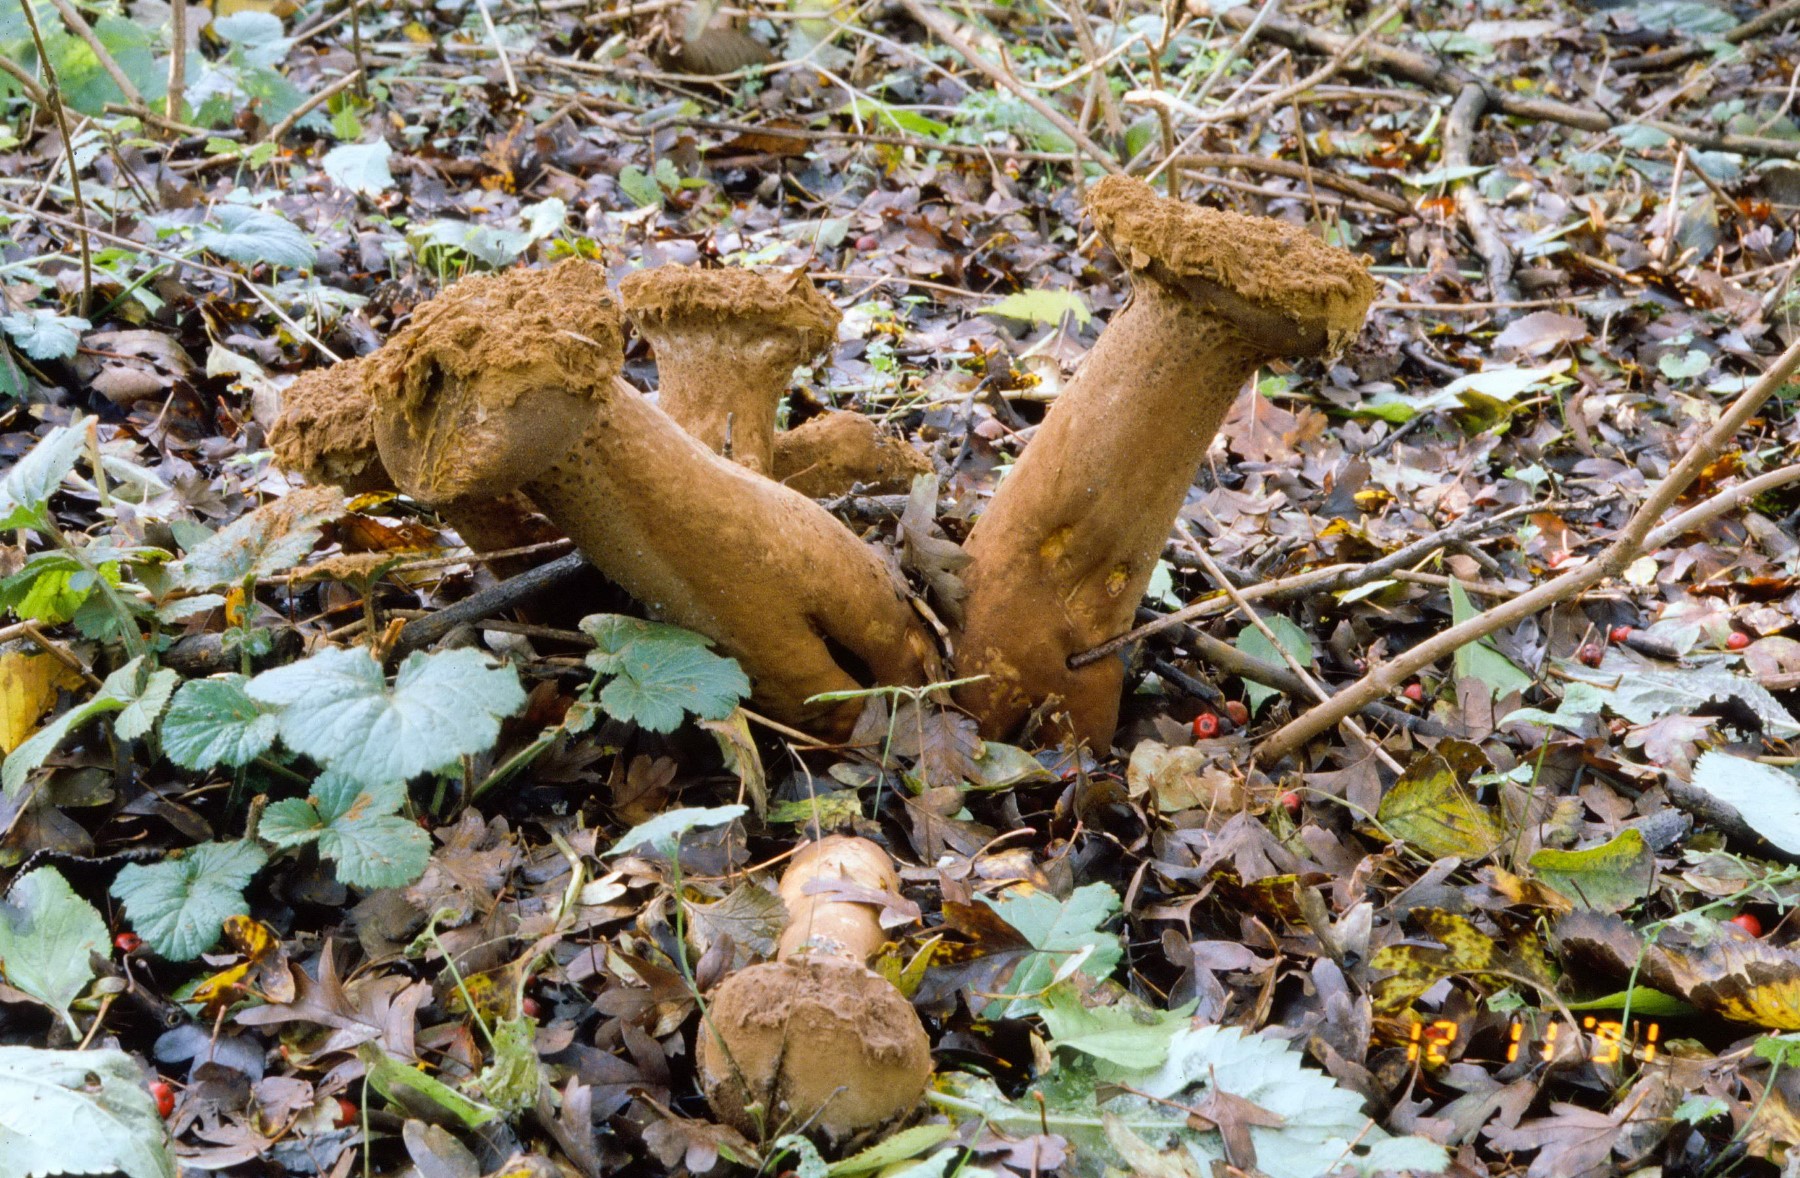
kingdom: Fungi
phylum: Basidiomycota
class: Agaricomycetes
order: Agaricales
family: Lycoperdaceae
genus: Lycoperdon
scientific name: Lycoperdon excipuliforme
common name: højstokket støvbold
